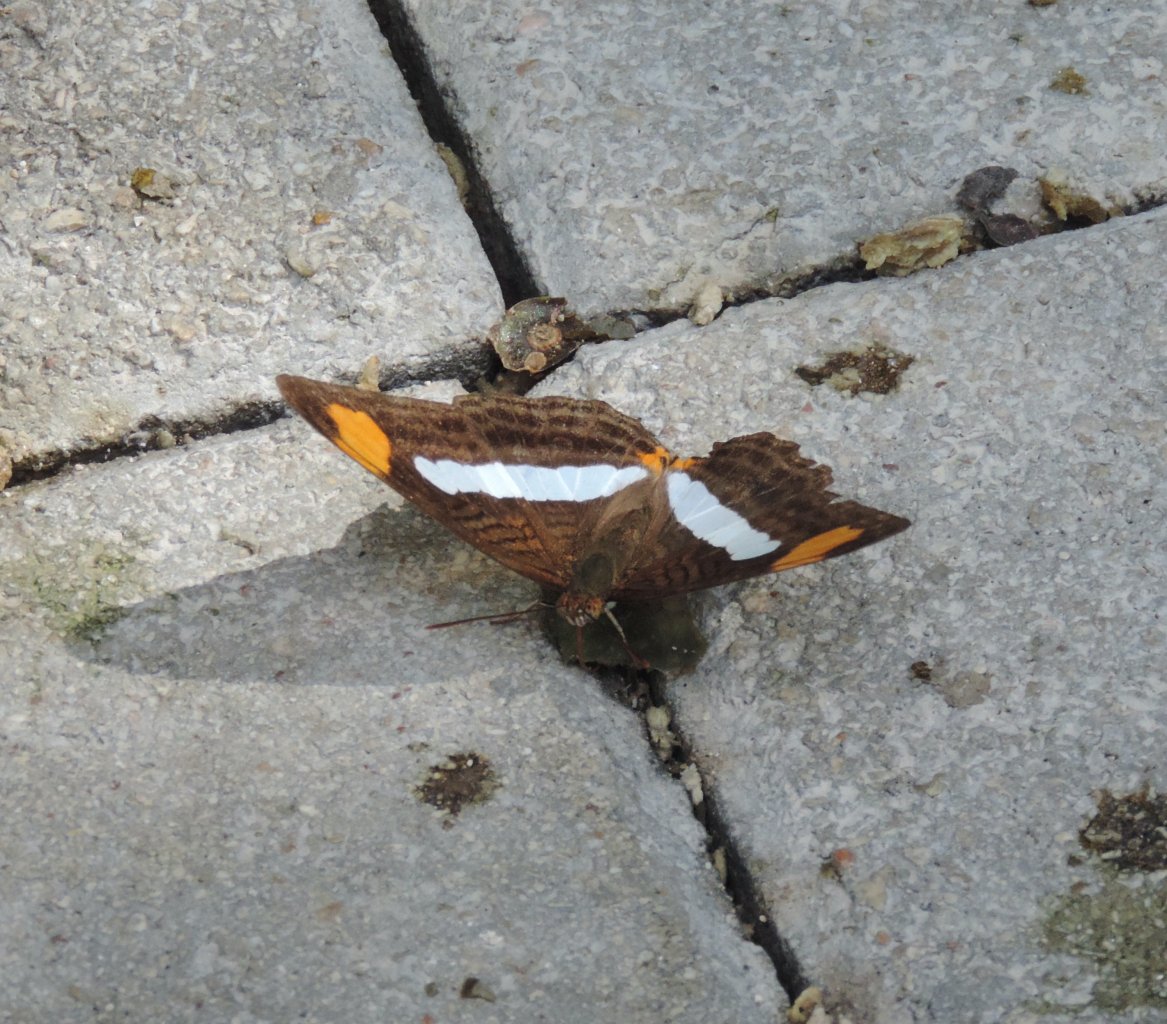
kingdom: Animalia
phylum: Arthropoda
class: Insecta
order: Lepidoptera
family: Nymphalidae
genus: Limenitis
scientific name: Limenitis iphiclus
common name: Iphicleola Sister
